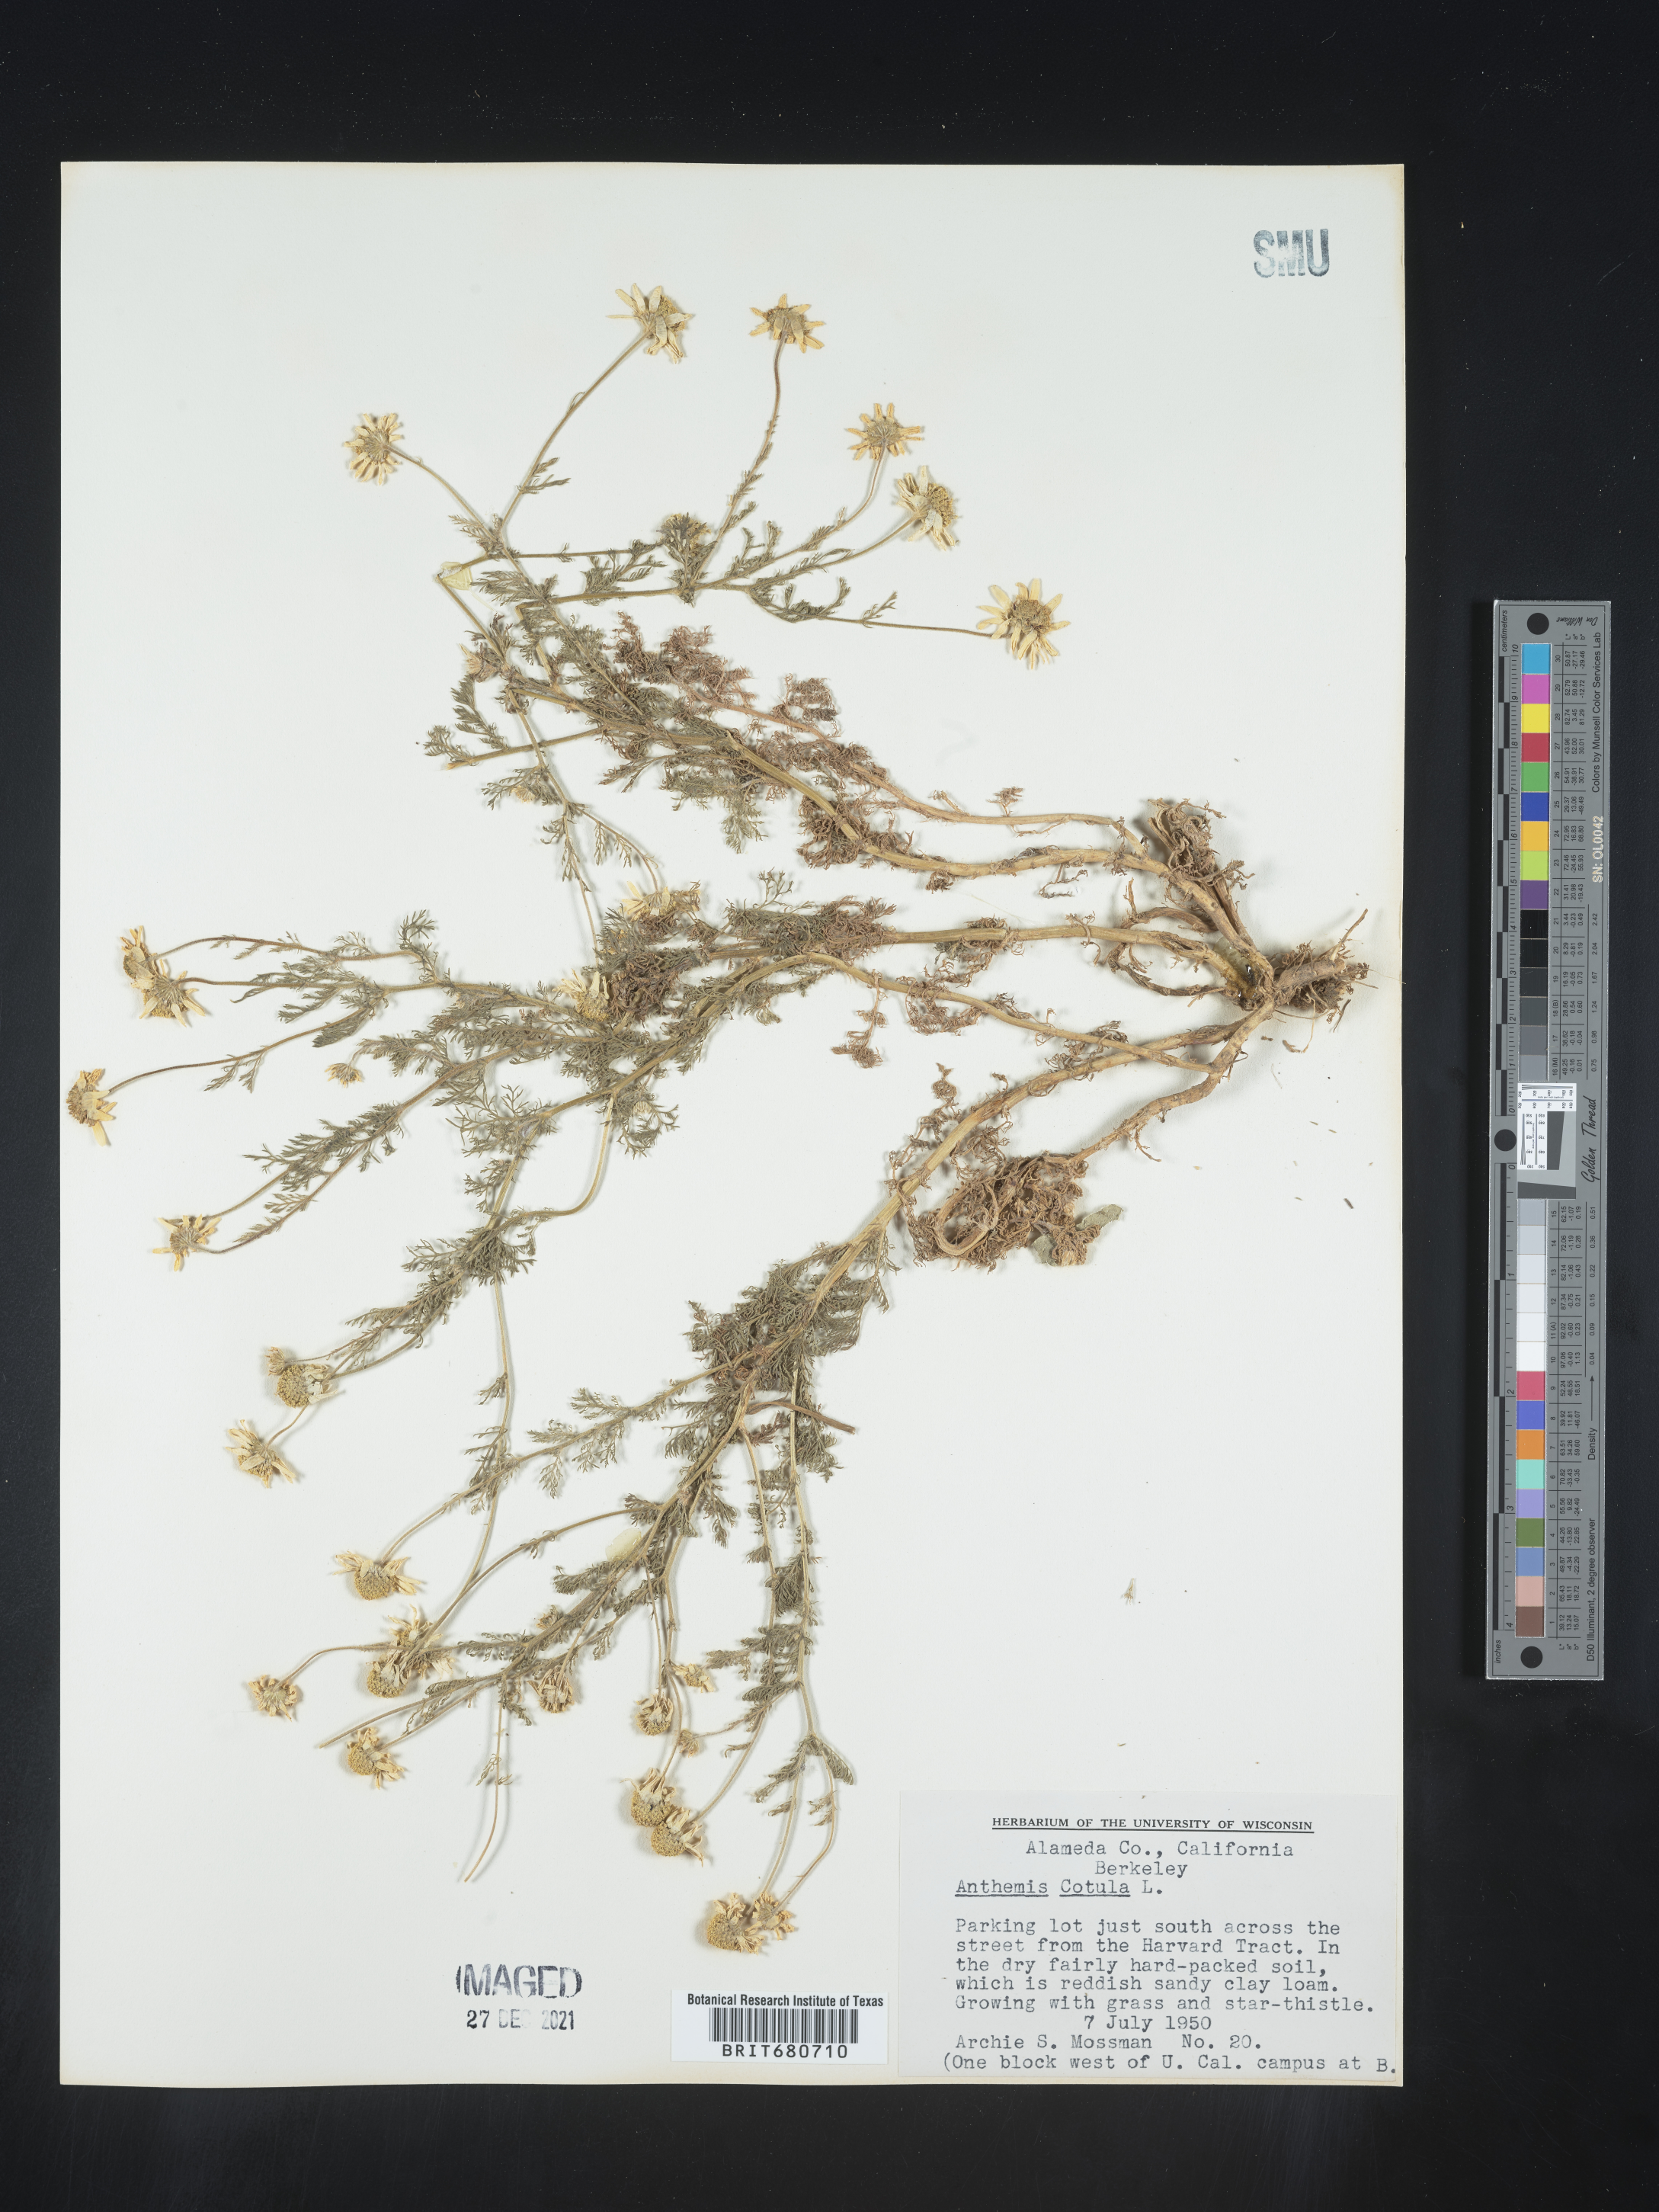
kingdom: Plantae
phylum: Tracheophyta
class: Magnoliopsida
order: Asterales
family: Asteraceae
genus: Anthemis
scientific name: Anthemis cotula
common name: Stinking chamomile
